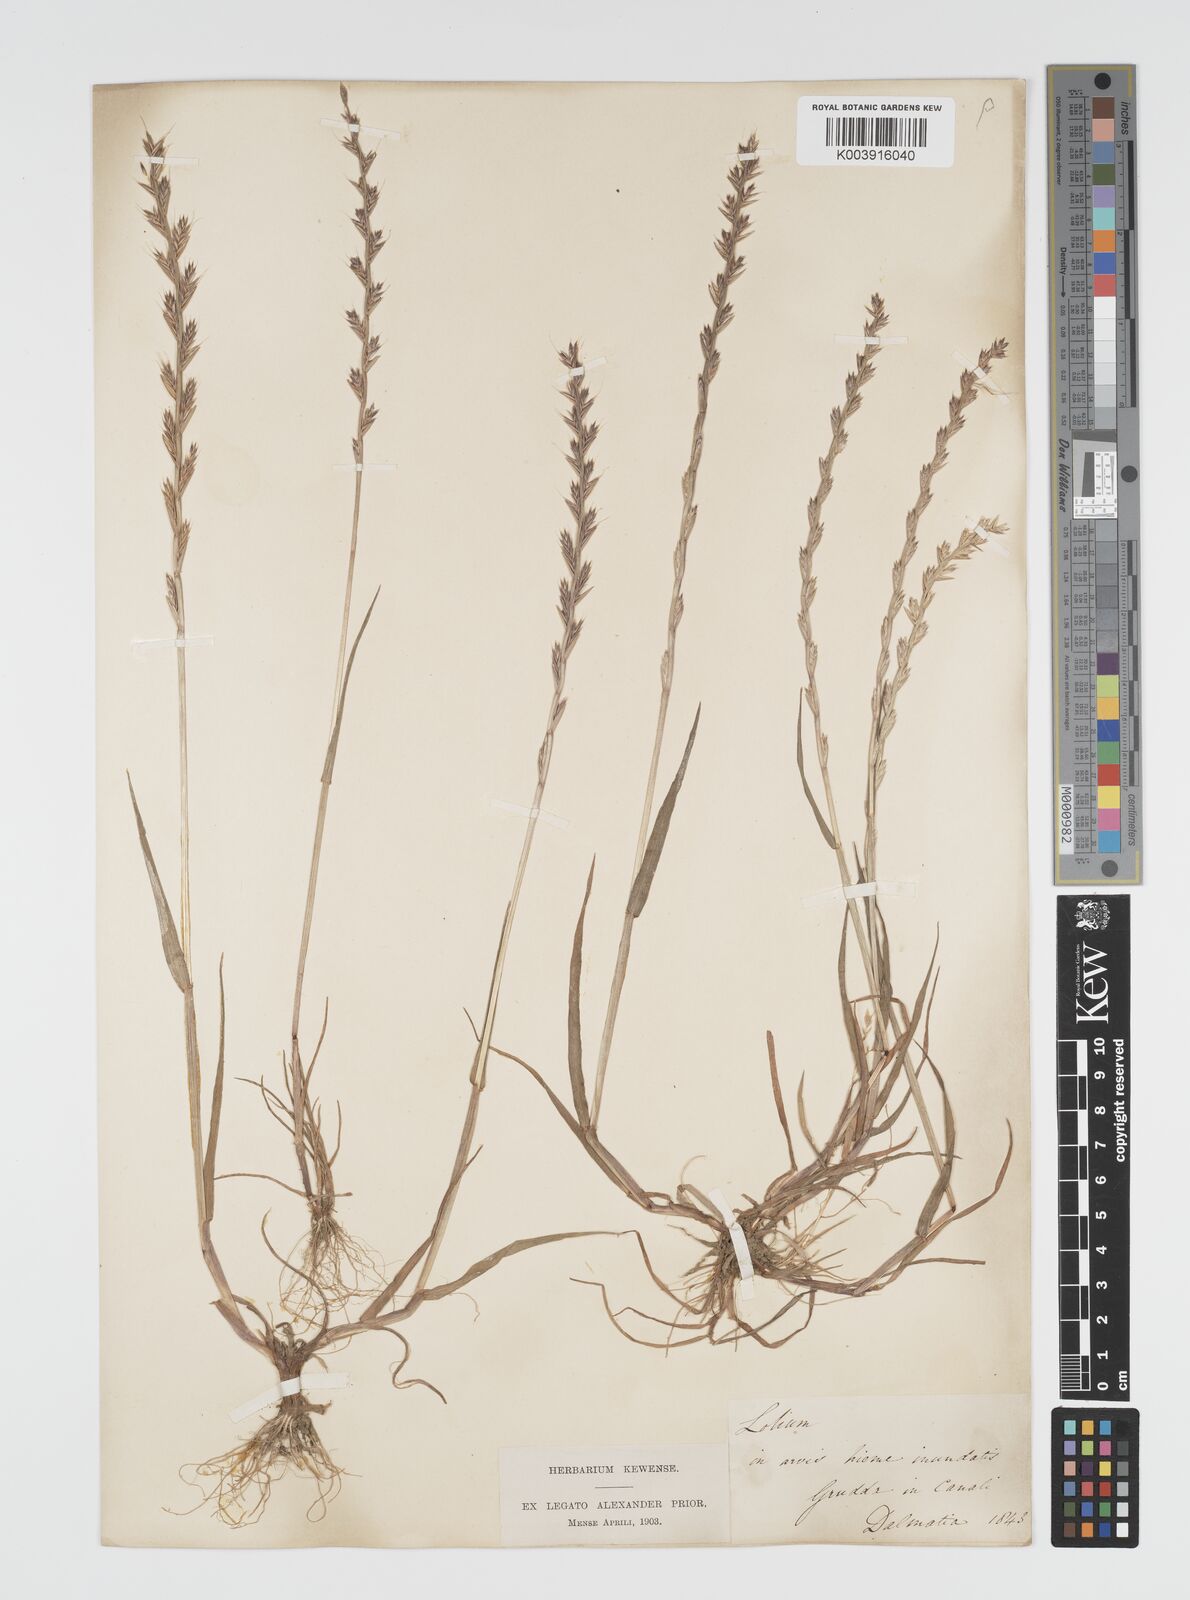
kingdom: Plantae
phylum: Tracheophyta
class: Liliopsida
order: Poales
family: Poaceae
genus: Lolium
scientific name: Lolium multiflorum
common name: Annual ryegrass
